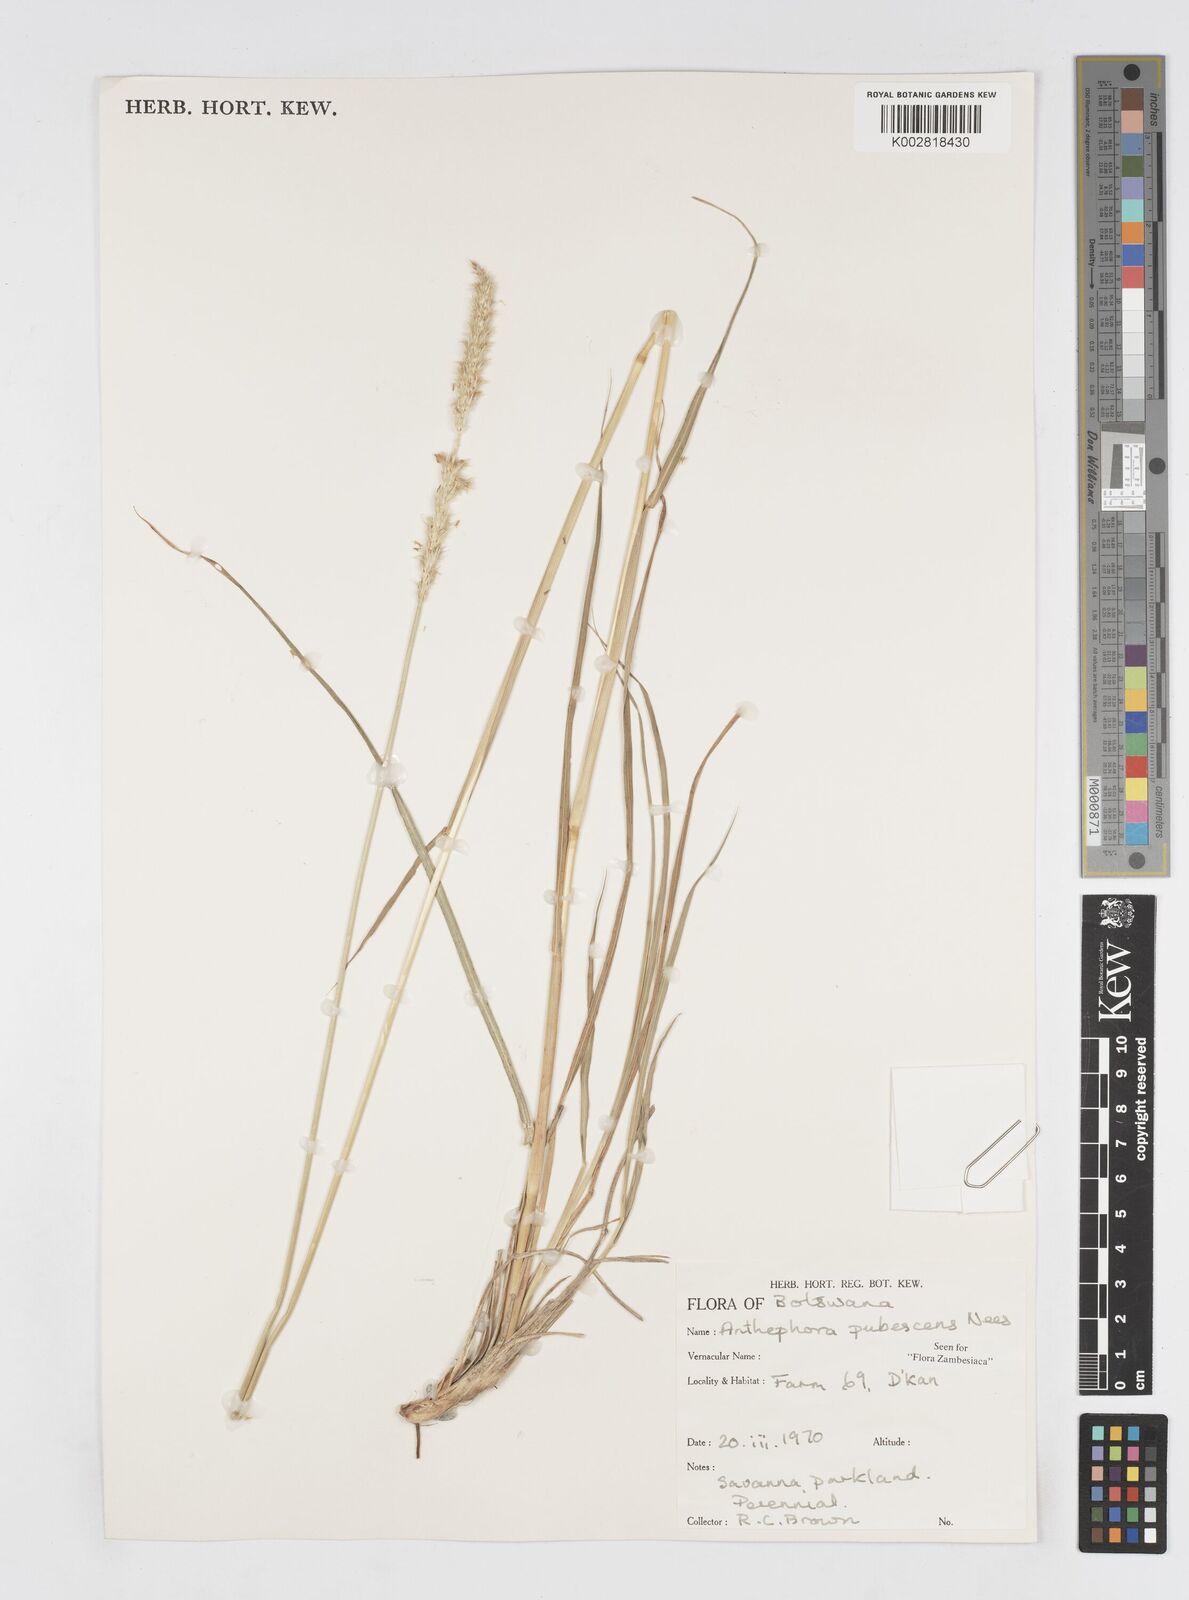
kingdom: Plantae
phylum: Tracheophyta
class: Liliopsida
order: Poales
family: Poaceae
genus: Anthephora
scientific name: Anthephora pubescens
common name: Wool grass
